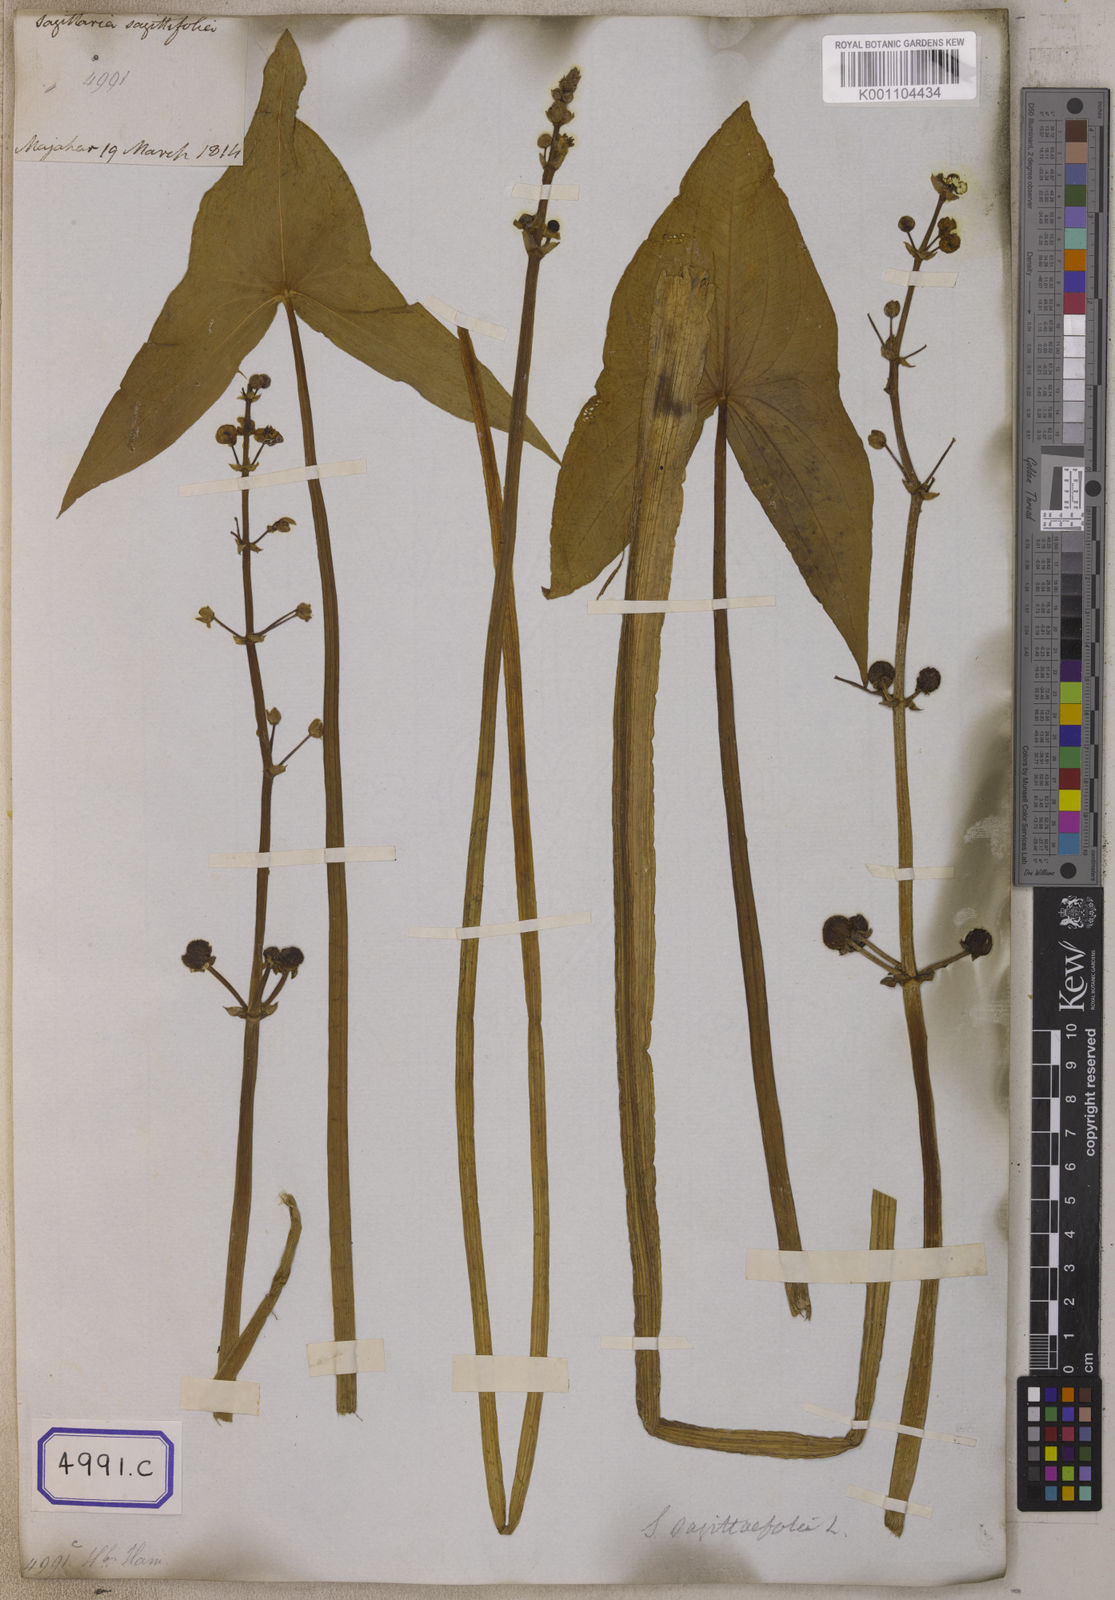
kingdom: Plantae
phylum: Tracheophyta
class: Liliopsida
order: Alismatales
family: Alismataceae
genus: Sagittaria
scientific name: Sagittaria sagittifolia
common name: Arrowhead
